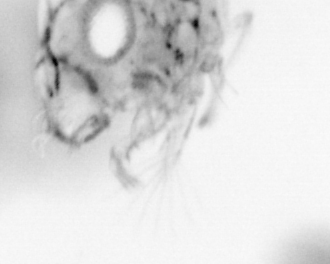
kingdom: Animalia
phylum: Arthropoda
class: Copepoda
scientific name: Copepoda
